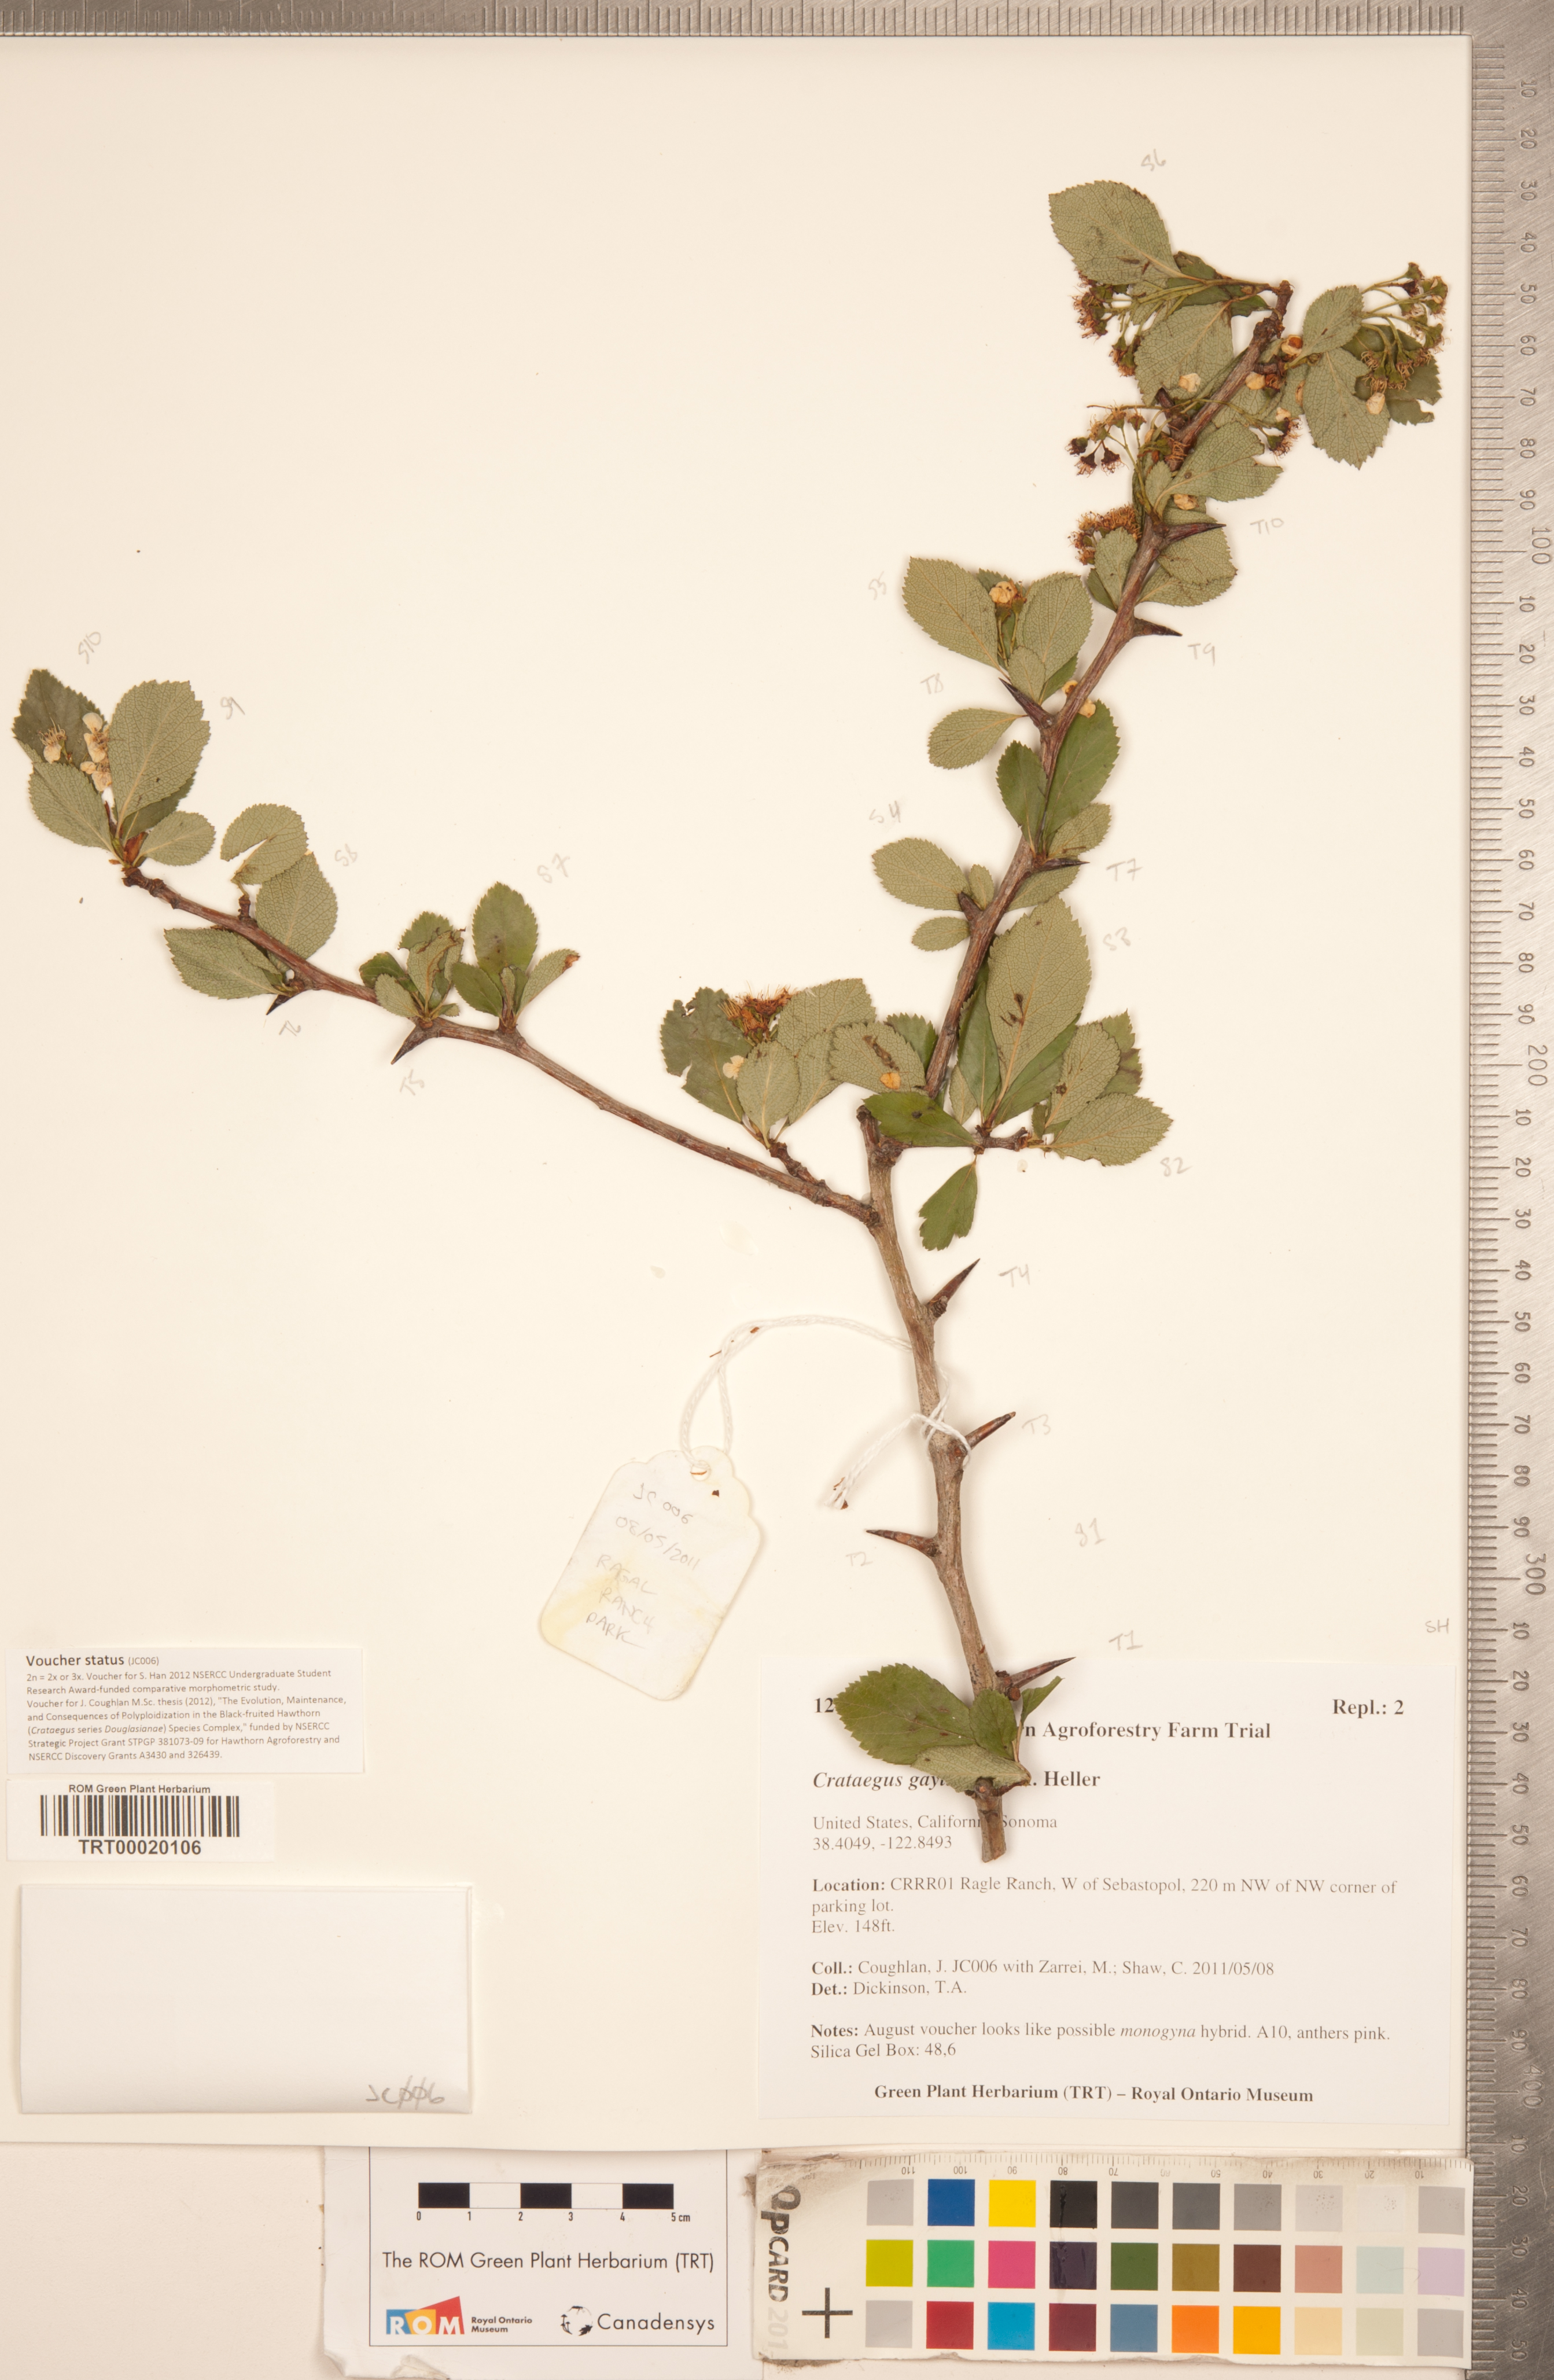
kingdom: Plantae
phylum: Tracheophyta
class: Magnoliopsida
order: Rosales
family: Rosaceae
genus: Crataegus
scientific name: Crataegus gaylussacia
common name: Huckleberry hawthorn
